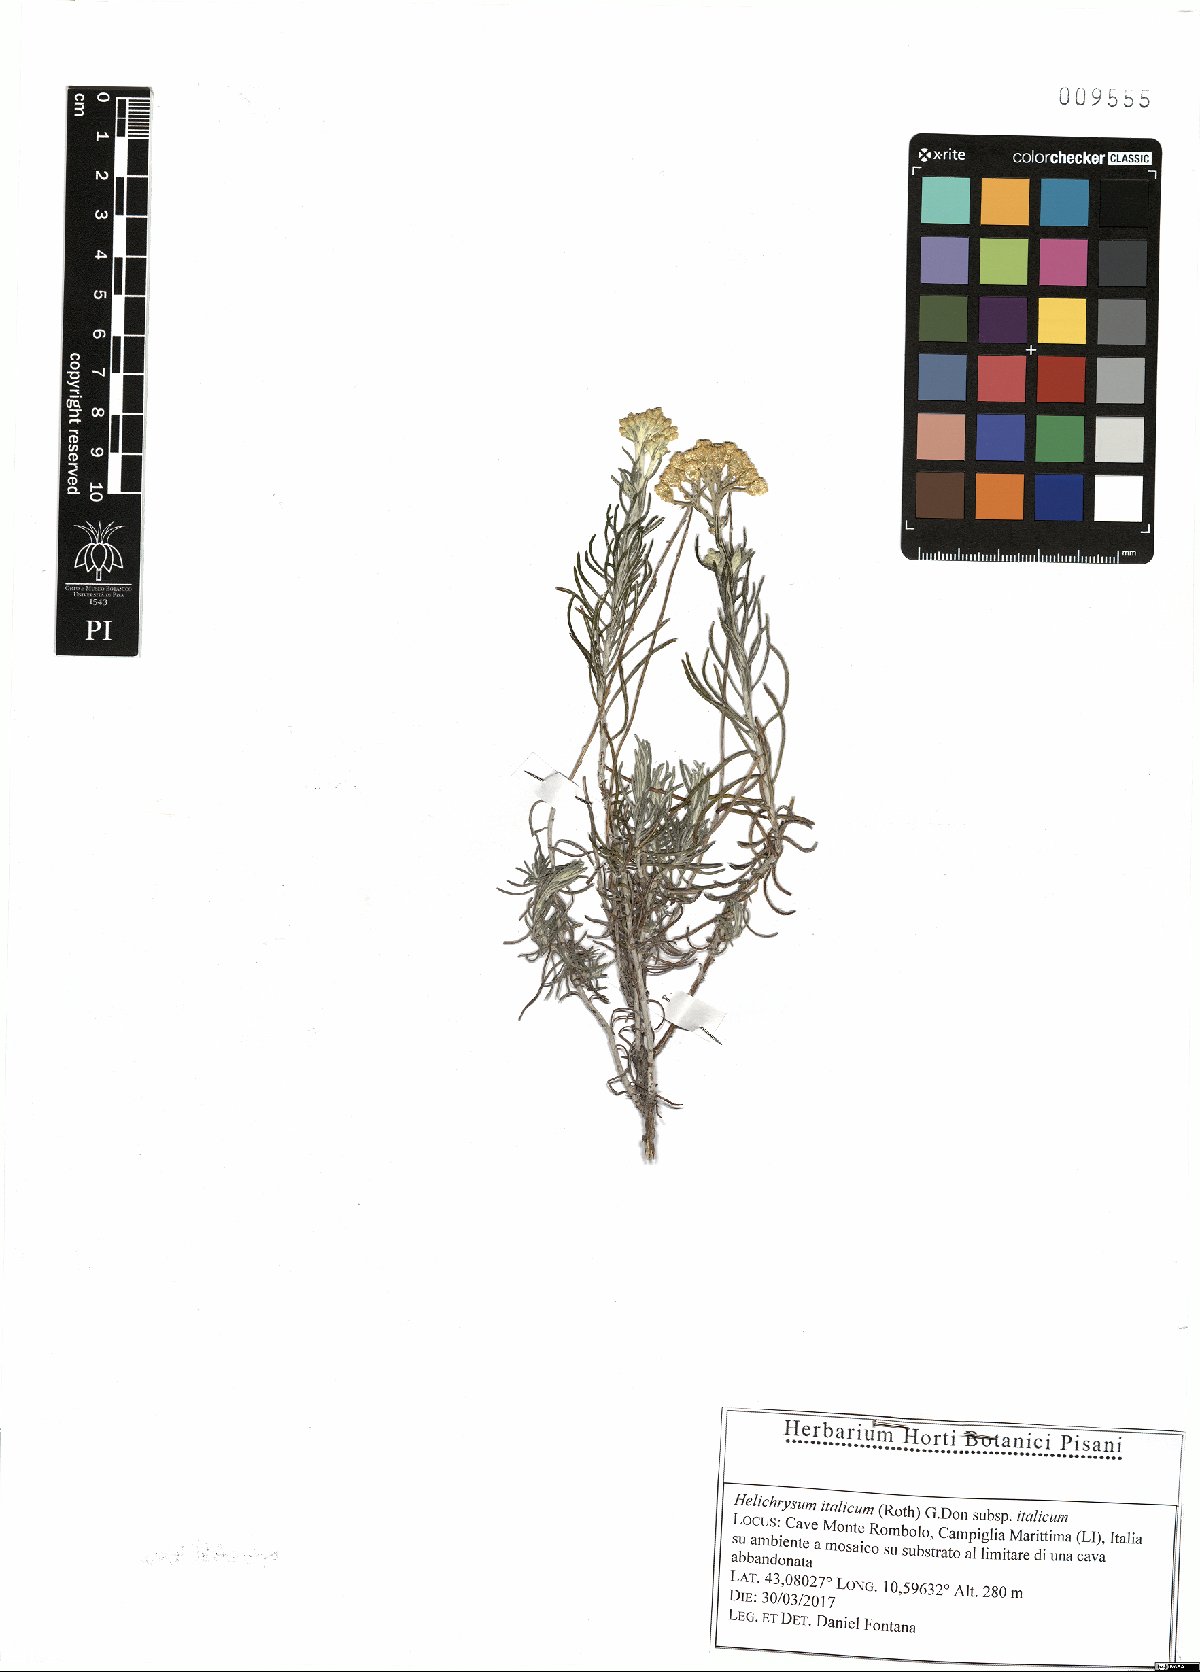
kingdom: Plantae
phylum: Tracheophyta
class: Magnoliopsida
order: Asterales
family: Asteraceae
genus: Helichrysum
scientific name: Helichrysum italicum
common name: Curryplant
